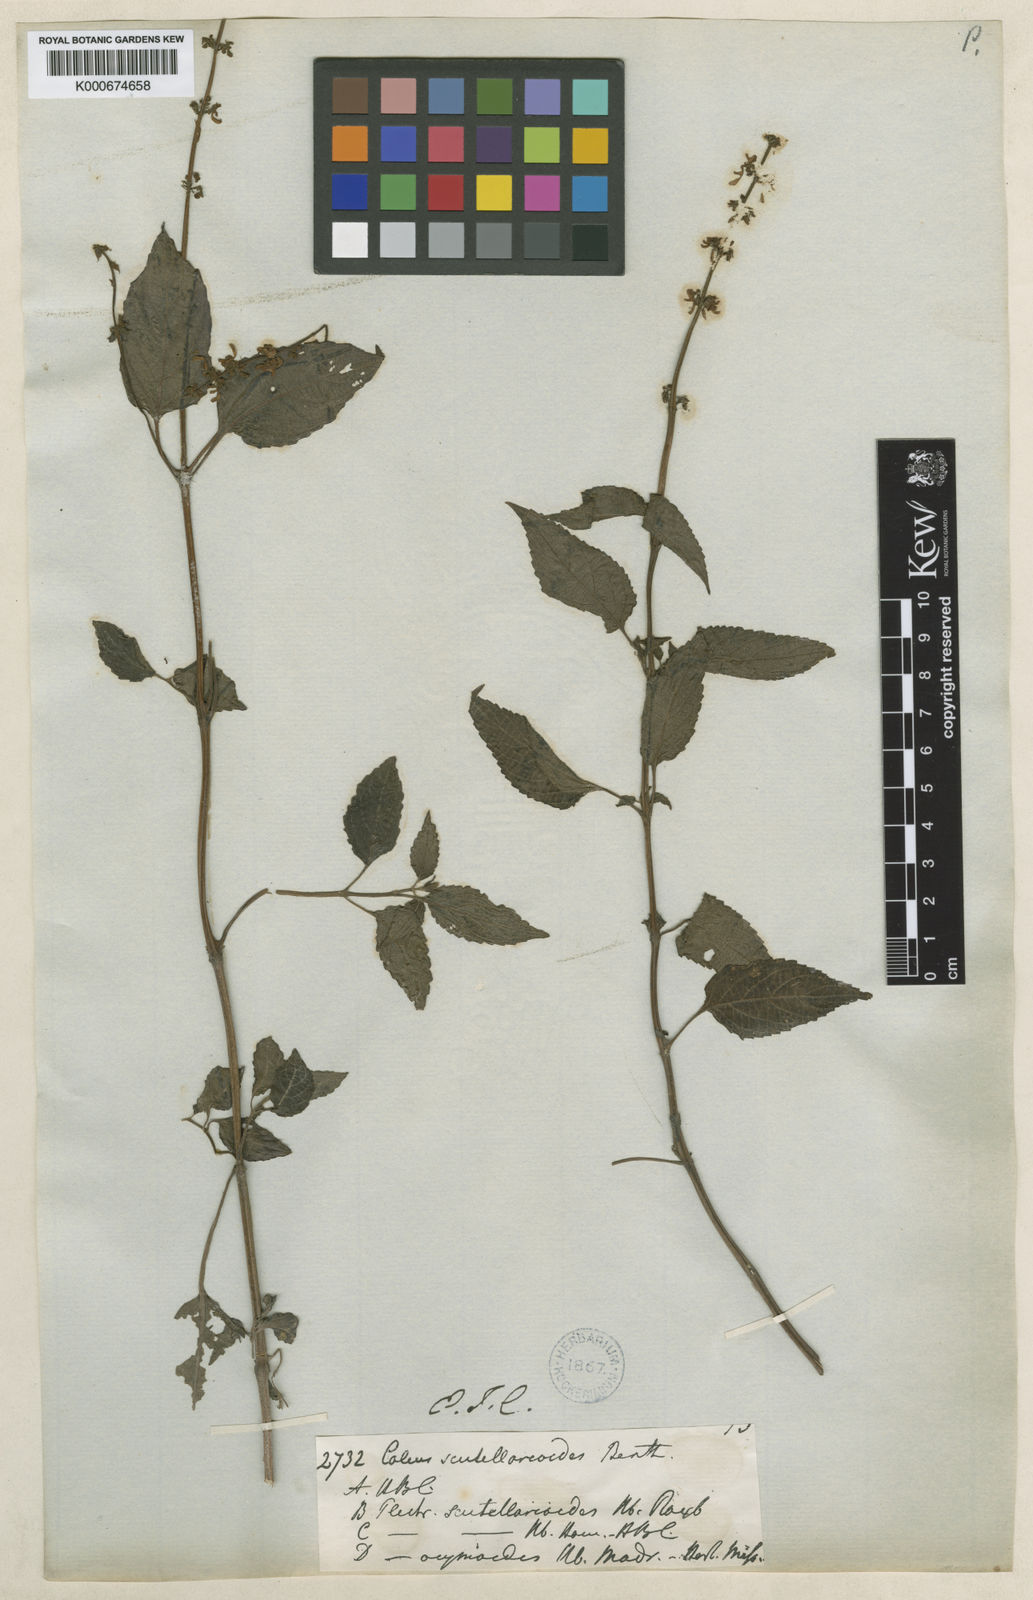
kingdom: Plantae
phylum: Tracheophyta
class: Magnoliopsida
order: Lamiales
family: Lamiaceae
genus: Coleus
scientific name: Coleus scutellarioides
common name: Coleus
